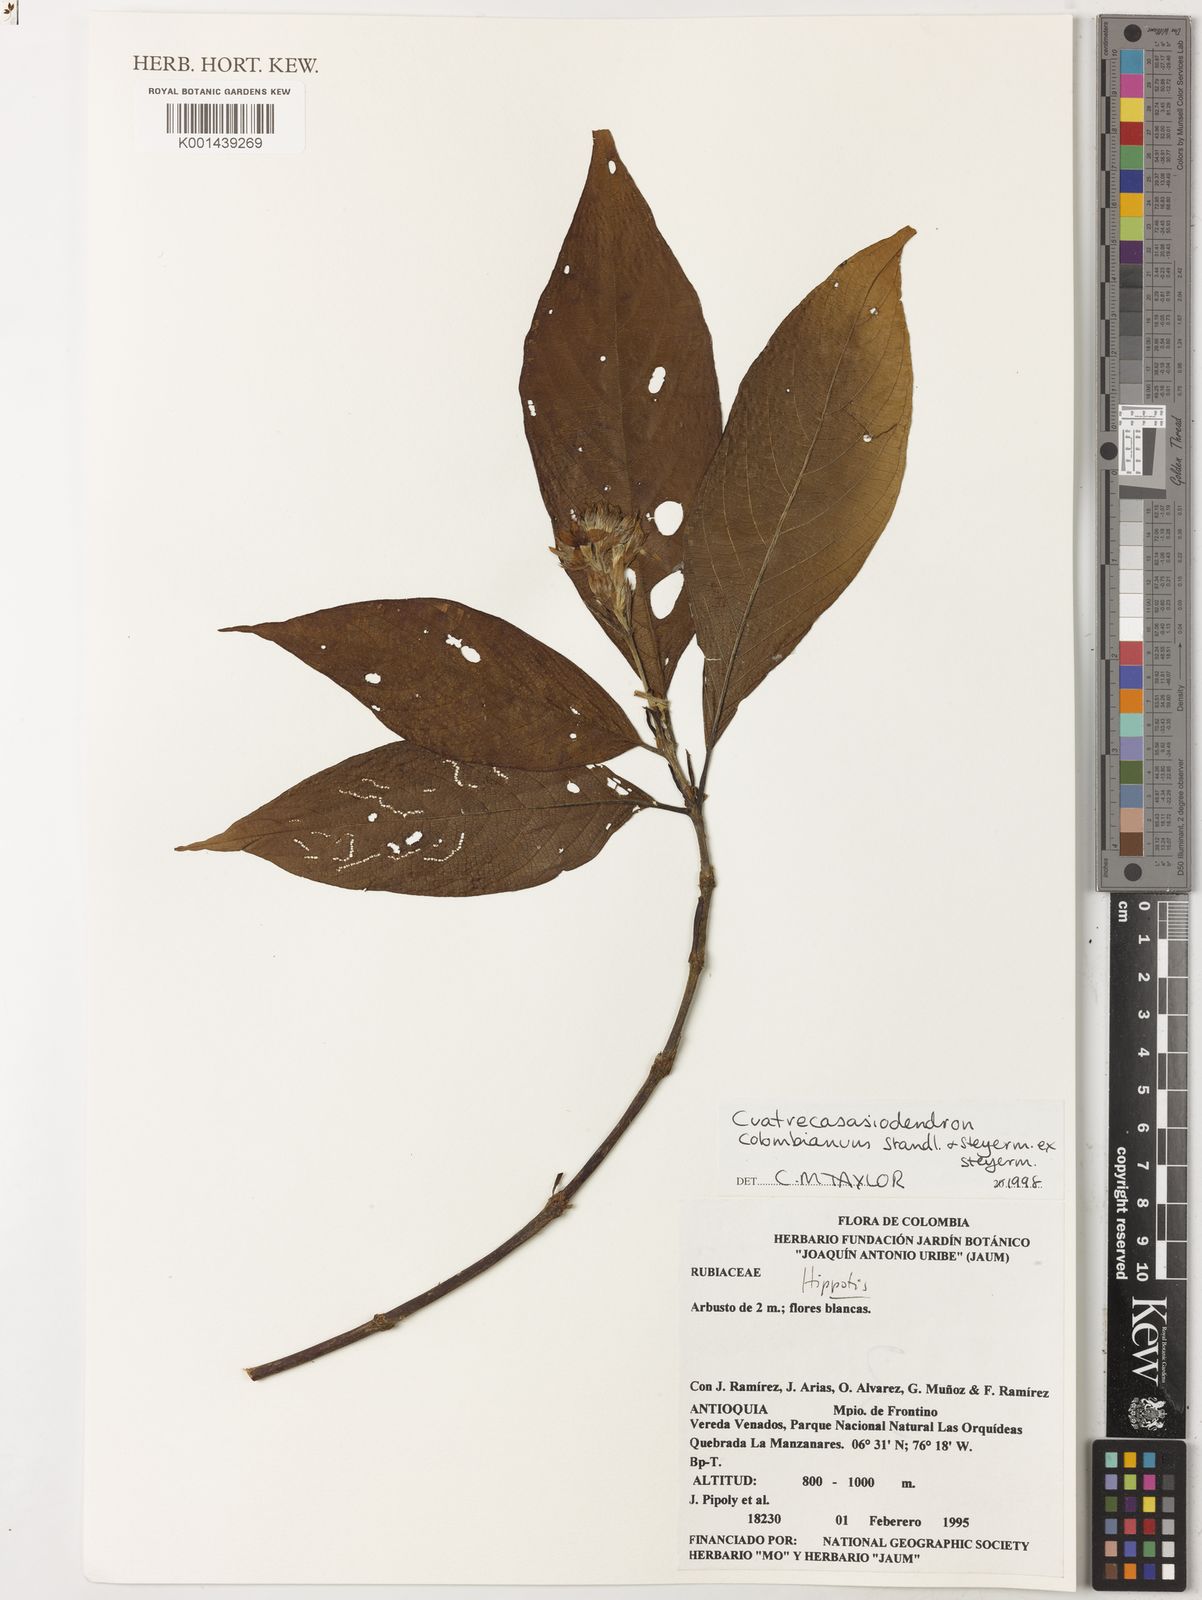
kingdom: Plantae
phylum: Tracheophyta
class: Magnoliopsida
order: Gentianales
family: Rubiaceae
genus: Arachnothryx
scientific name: Arachnothryx colombiana
